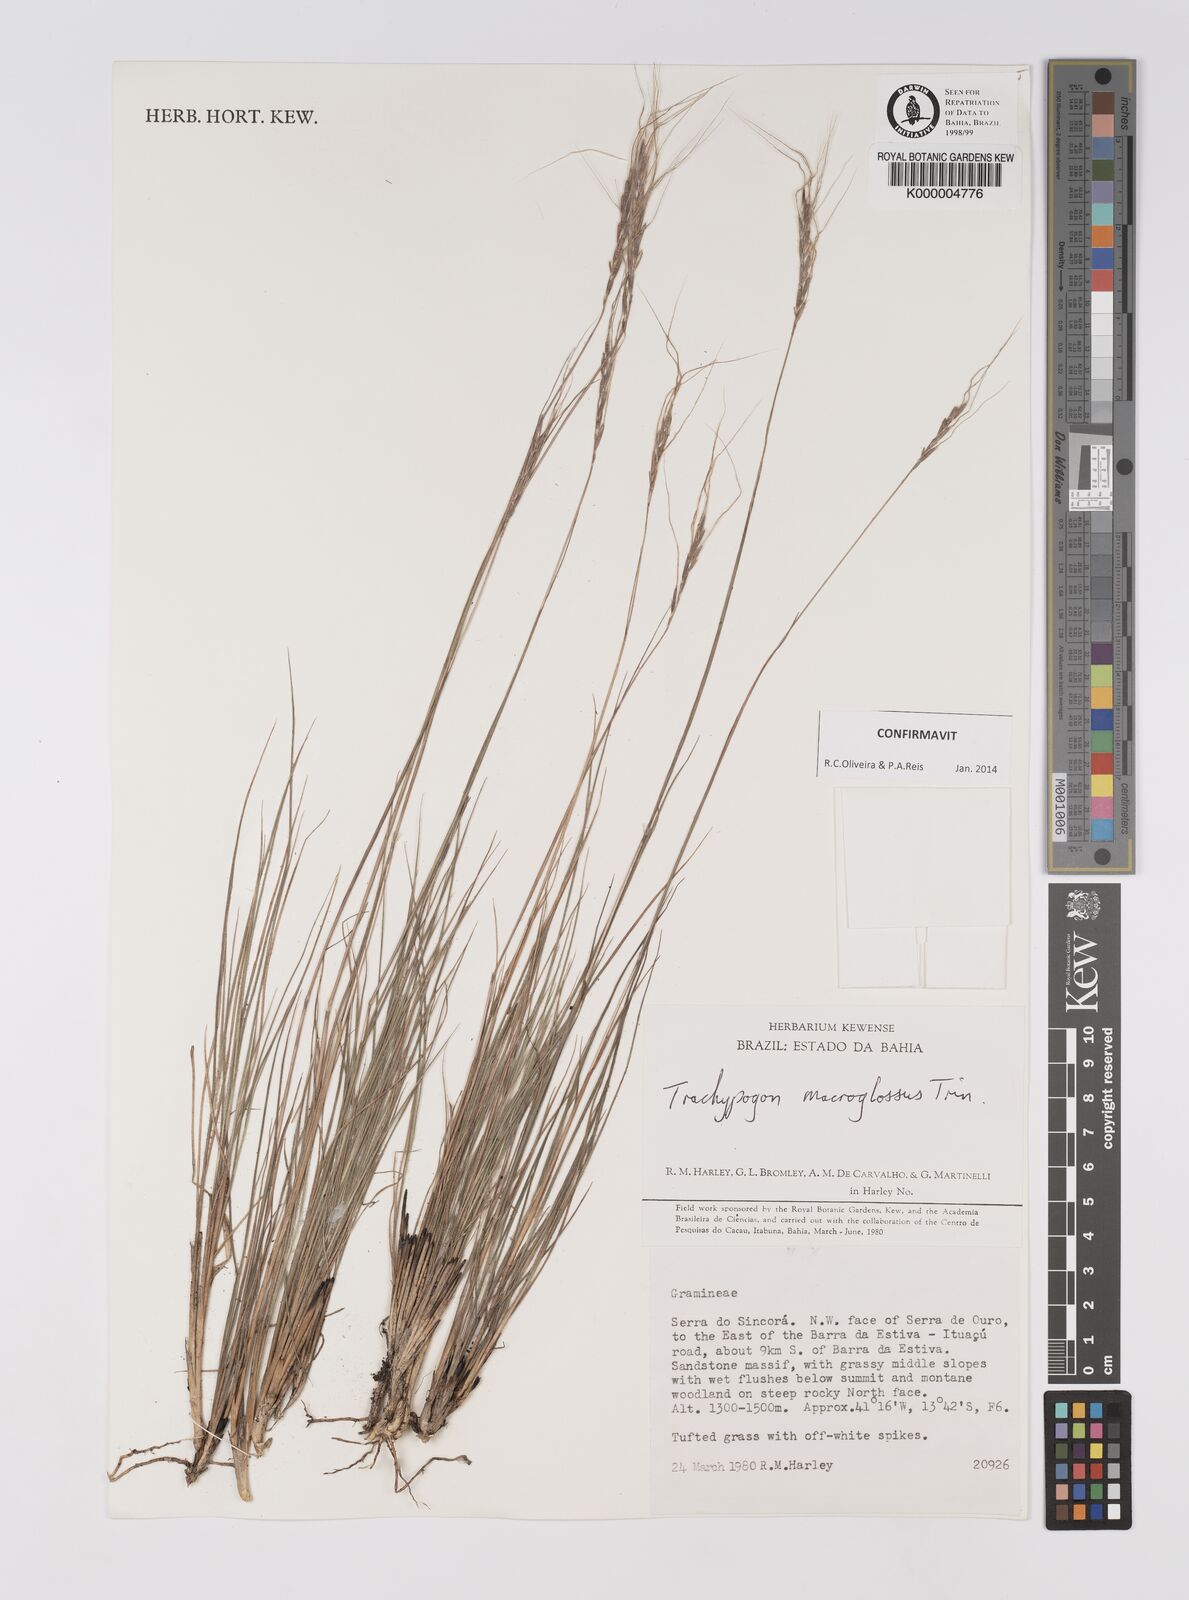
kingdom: Plantae
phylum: Tracheophyta
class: Liliopsida
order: Poales
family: Poaceae
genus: Trachypogon
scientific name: Trachypogon macroglossus
